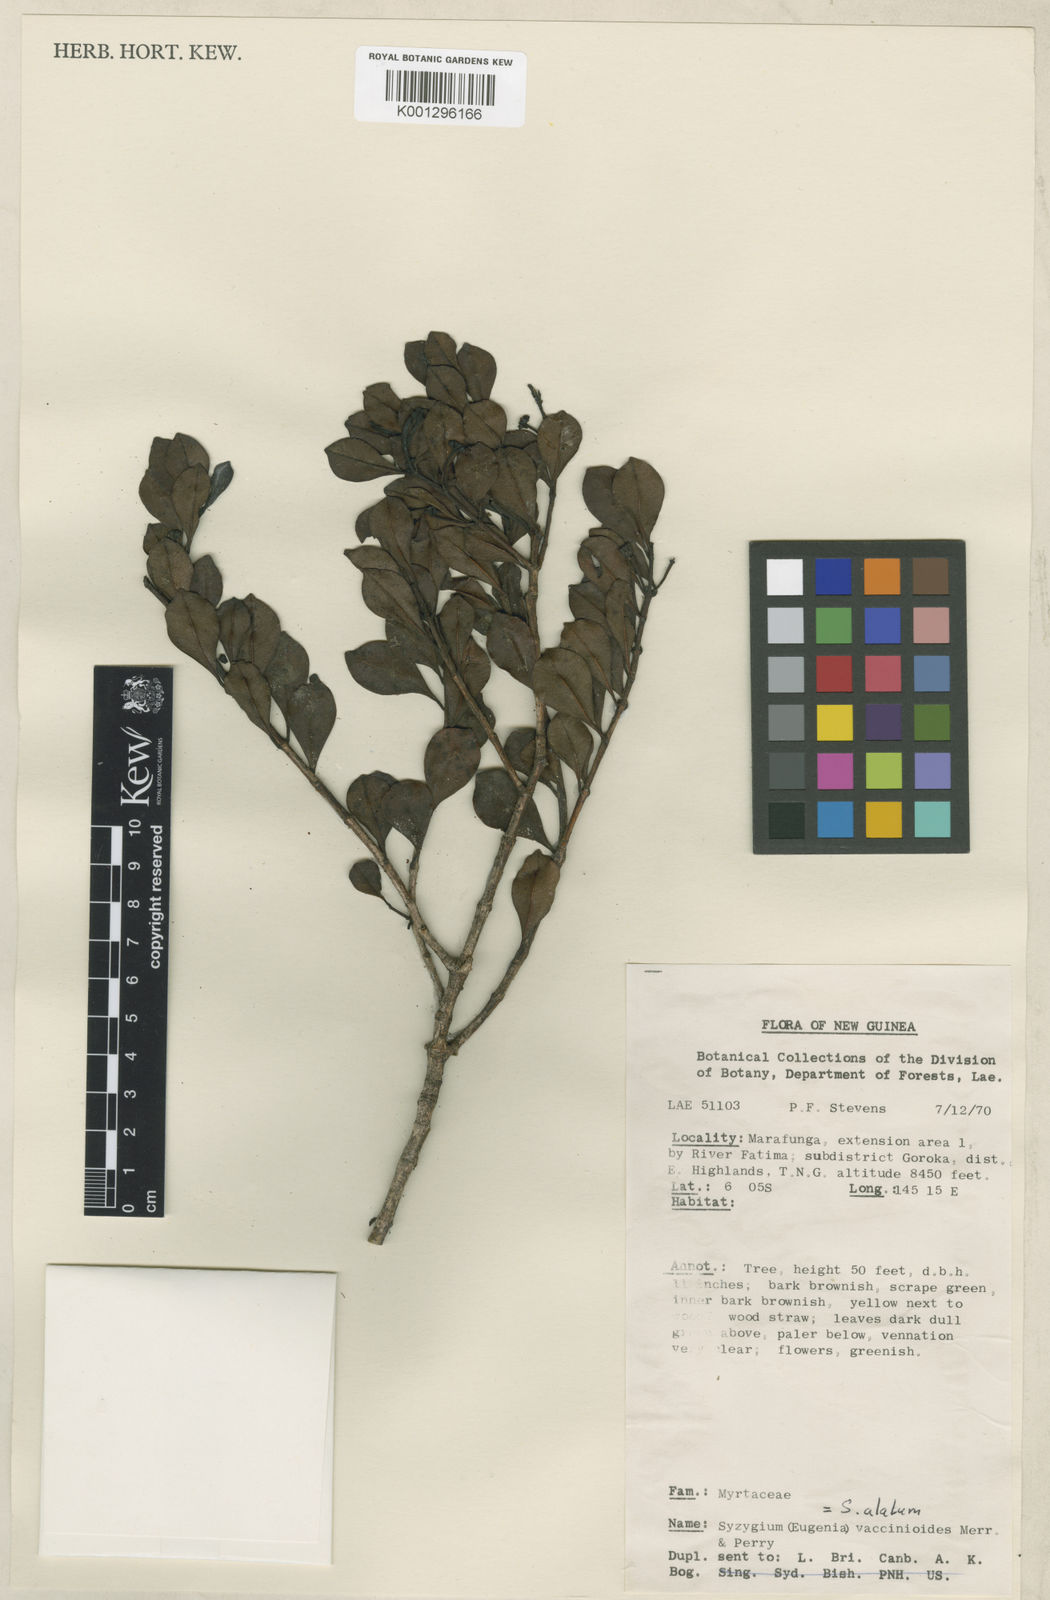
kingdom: Plantae
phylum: Tracheophyta
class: Magnoliopsida
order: Myrtales
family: Myrtaceae
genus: Syzygium
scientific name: Syzygium alatum
